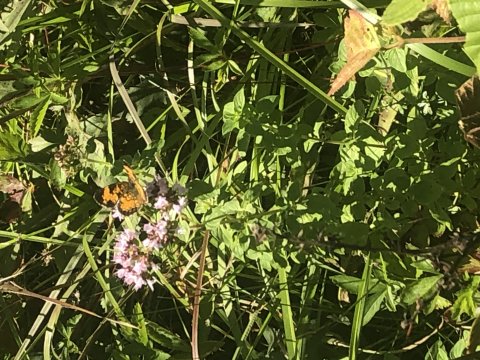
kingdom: Animalia
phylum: Arthropoda
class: Insecta
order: Lepidoptera
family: Nymphalidae
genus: Phyciodes
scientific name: Phyciodes
